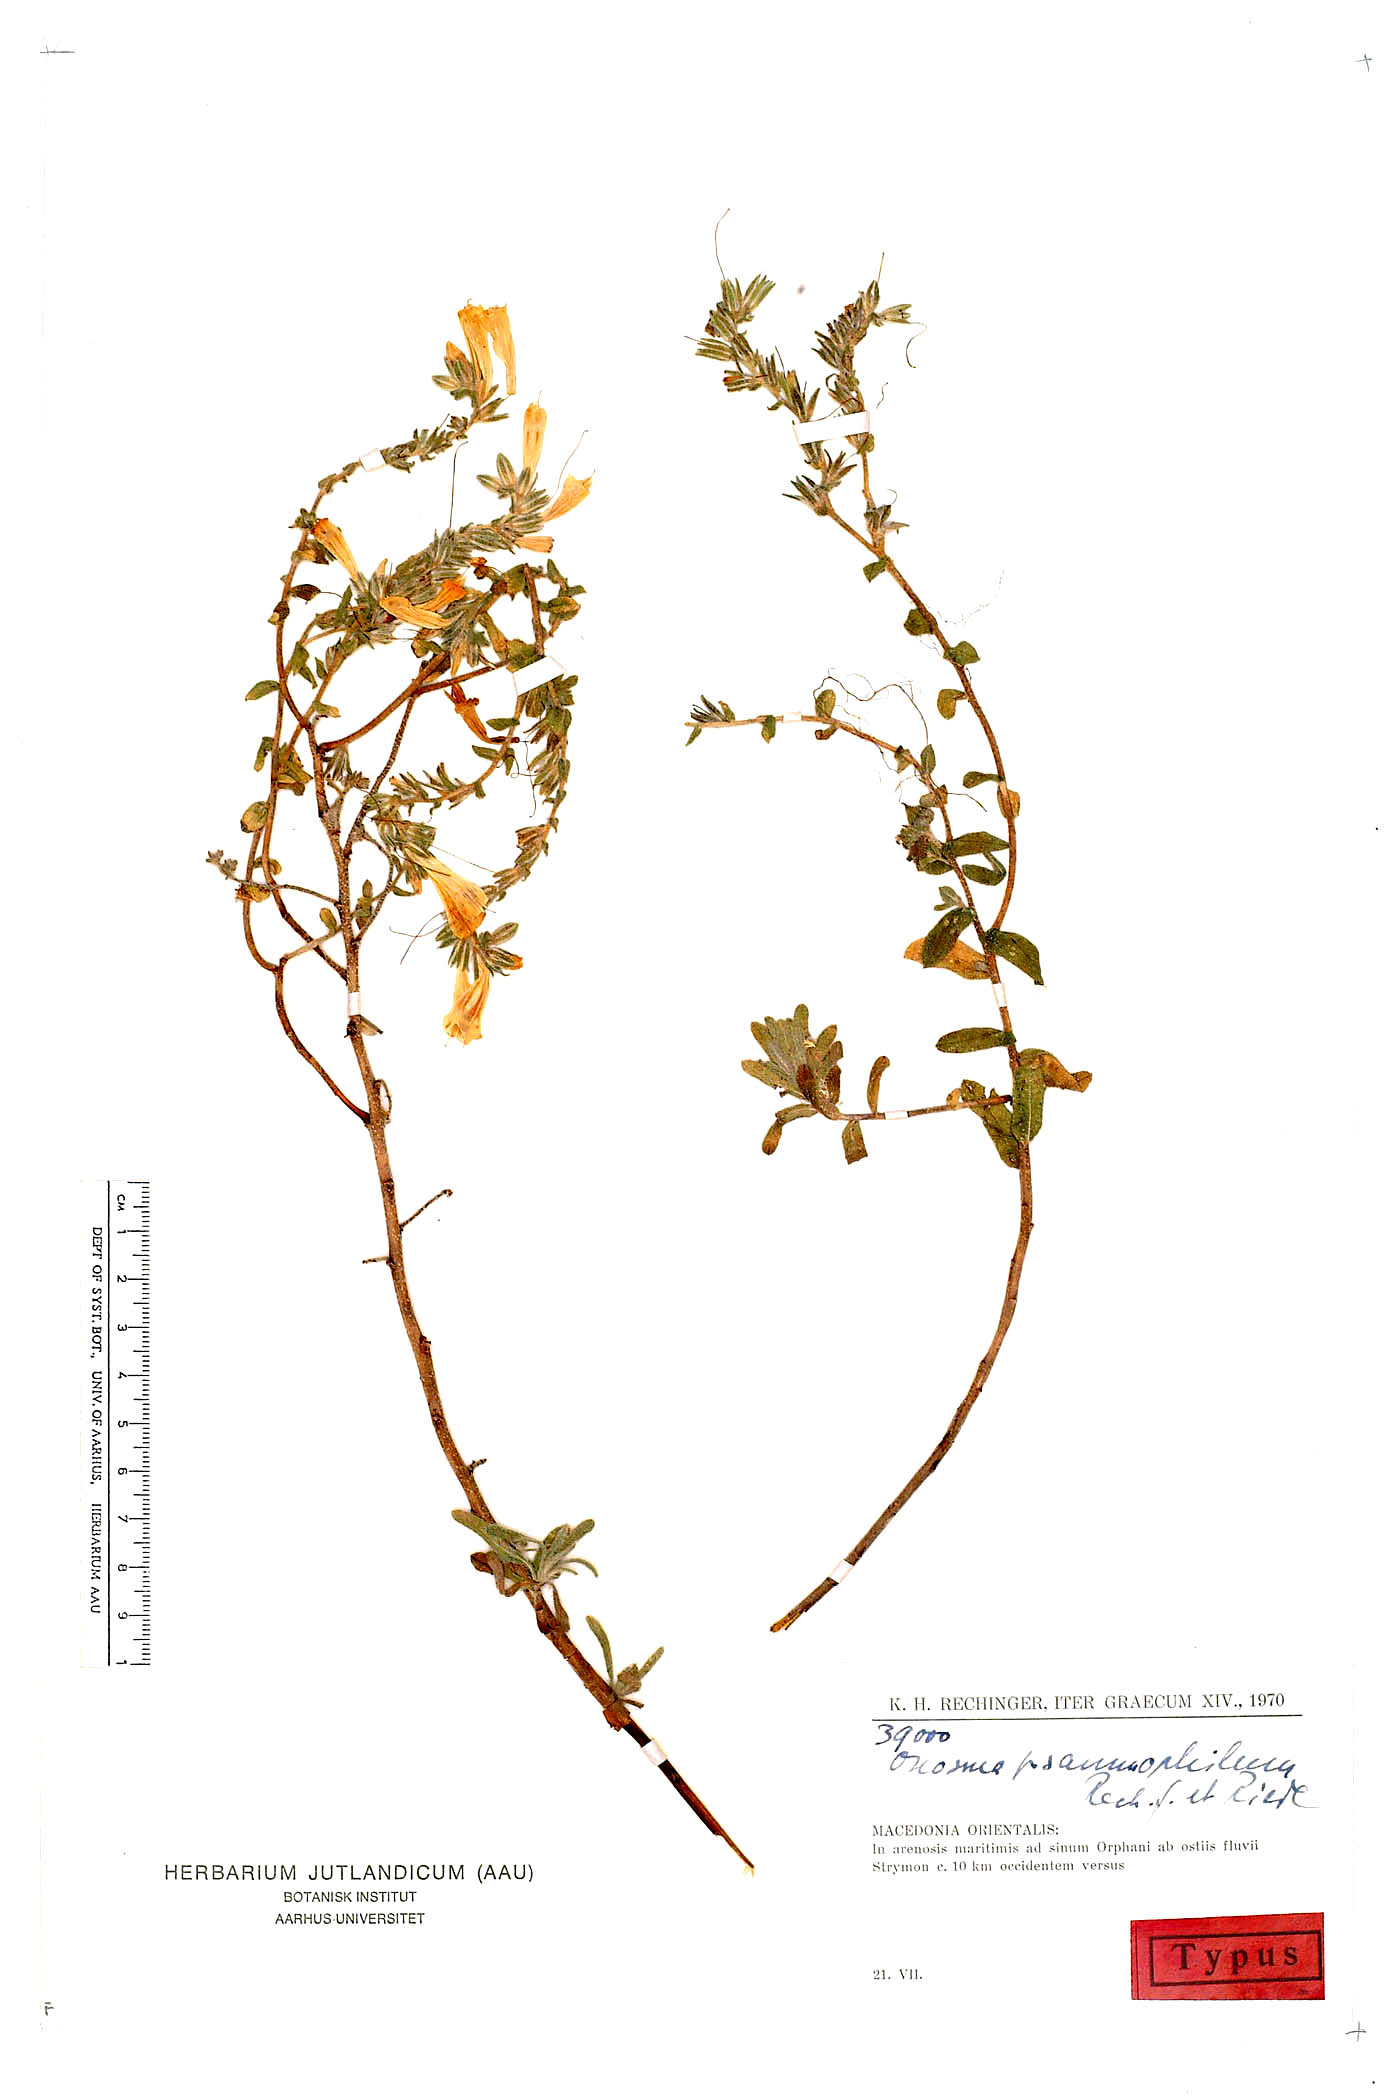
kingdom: Plantae
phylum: Tracheophyta
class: Magnoliopsida
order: Boraginales
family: Boraginaceae
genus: Onosma
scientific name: Onosma heterophylla
